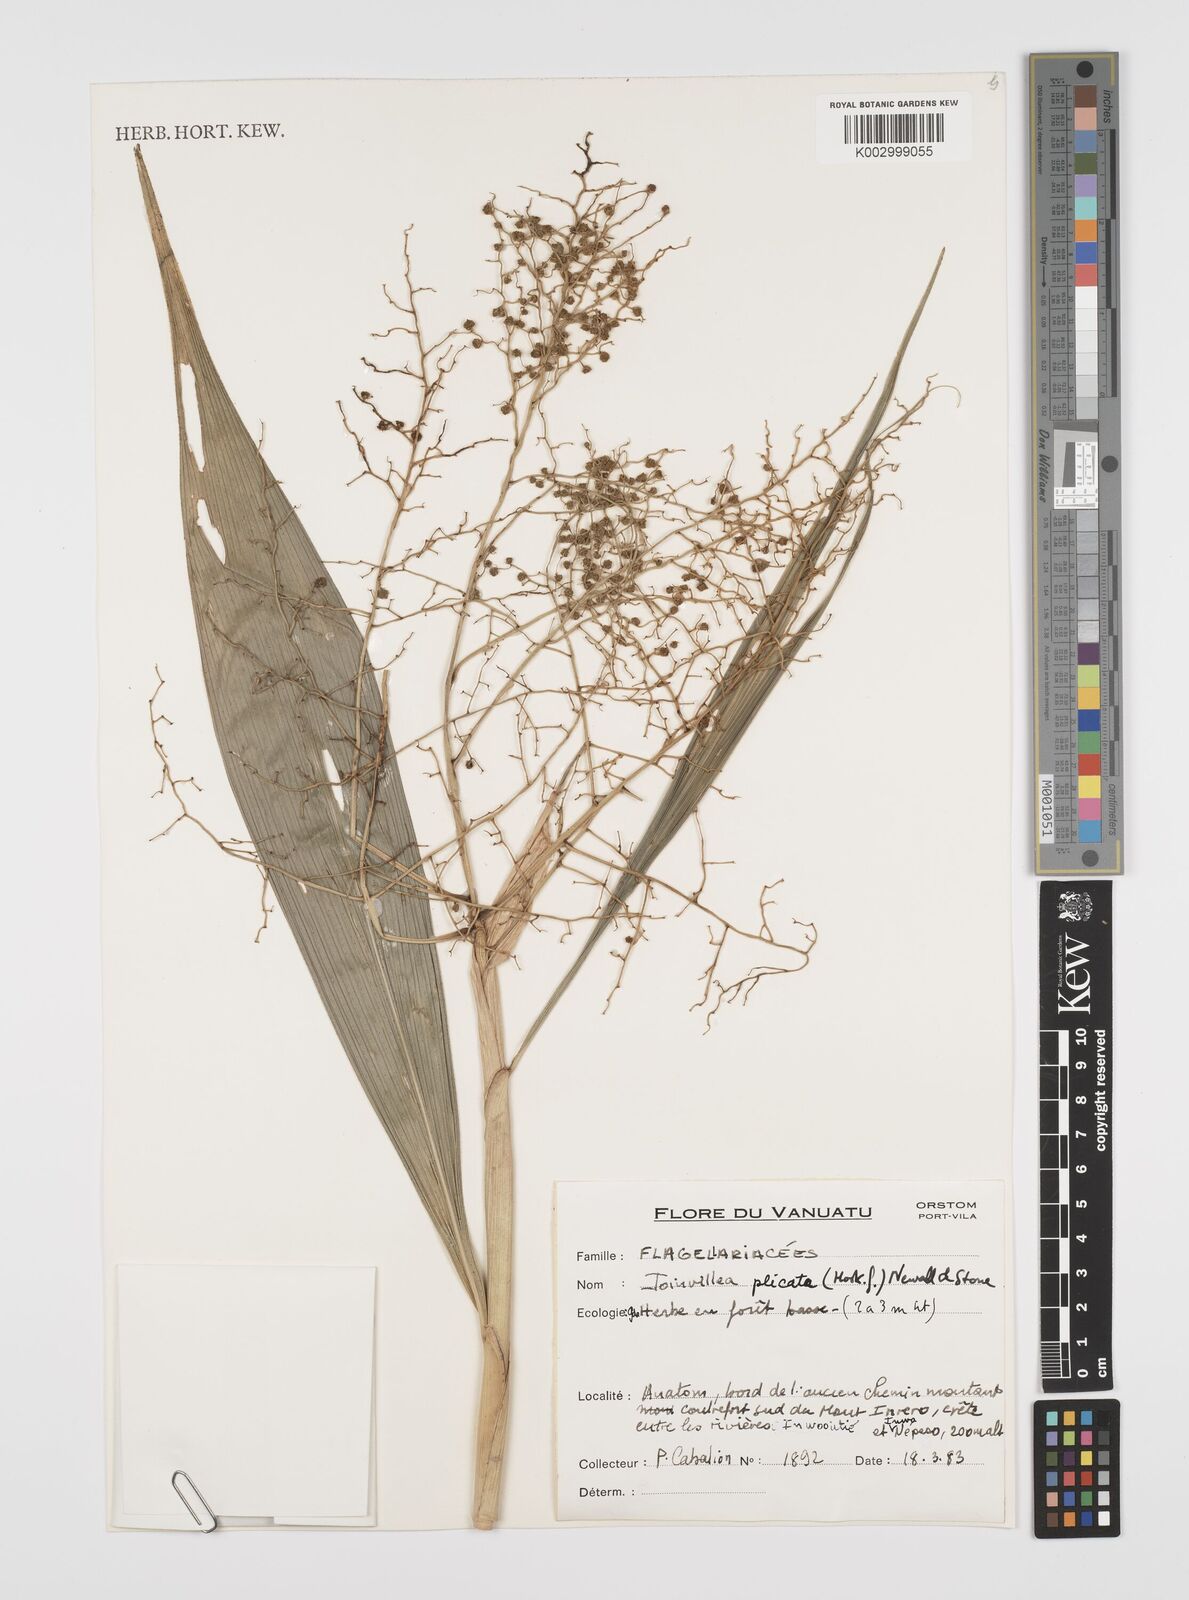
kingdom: Plantae
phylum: Tracheophyta
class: Liliopsida
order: Poales
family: Joinvilleaceae
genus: Joinvillea
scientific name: Joinvillea plicata
